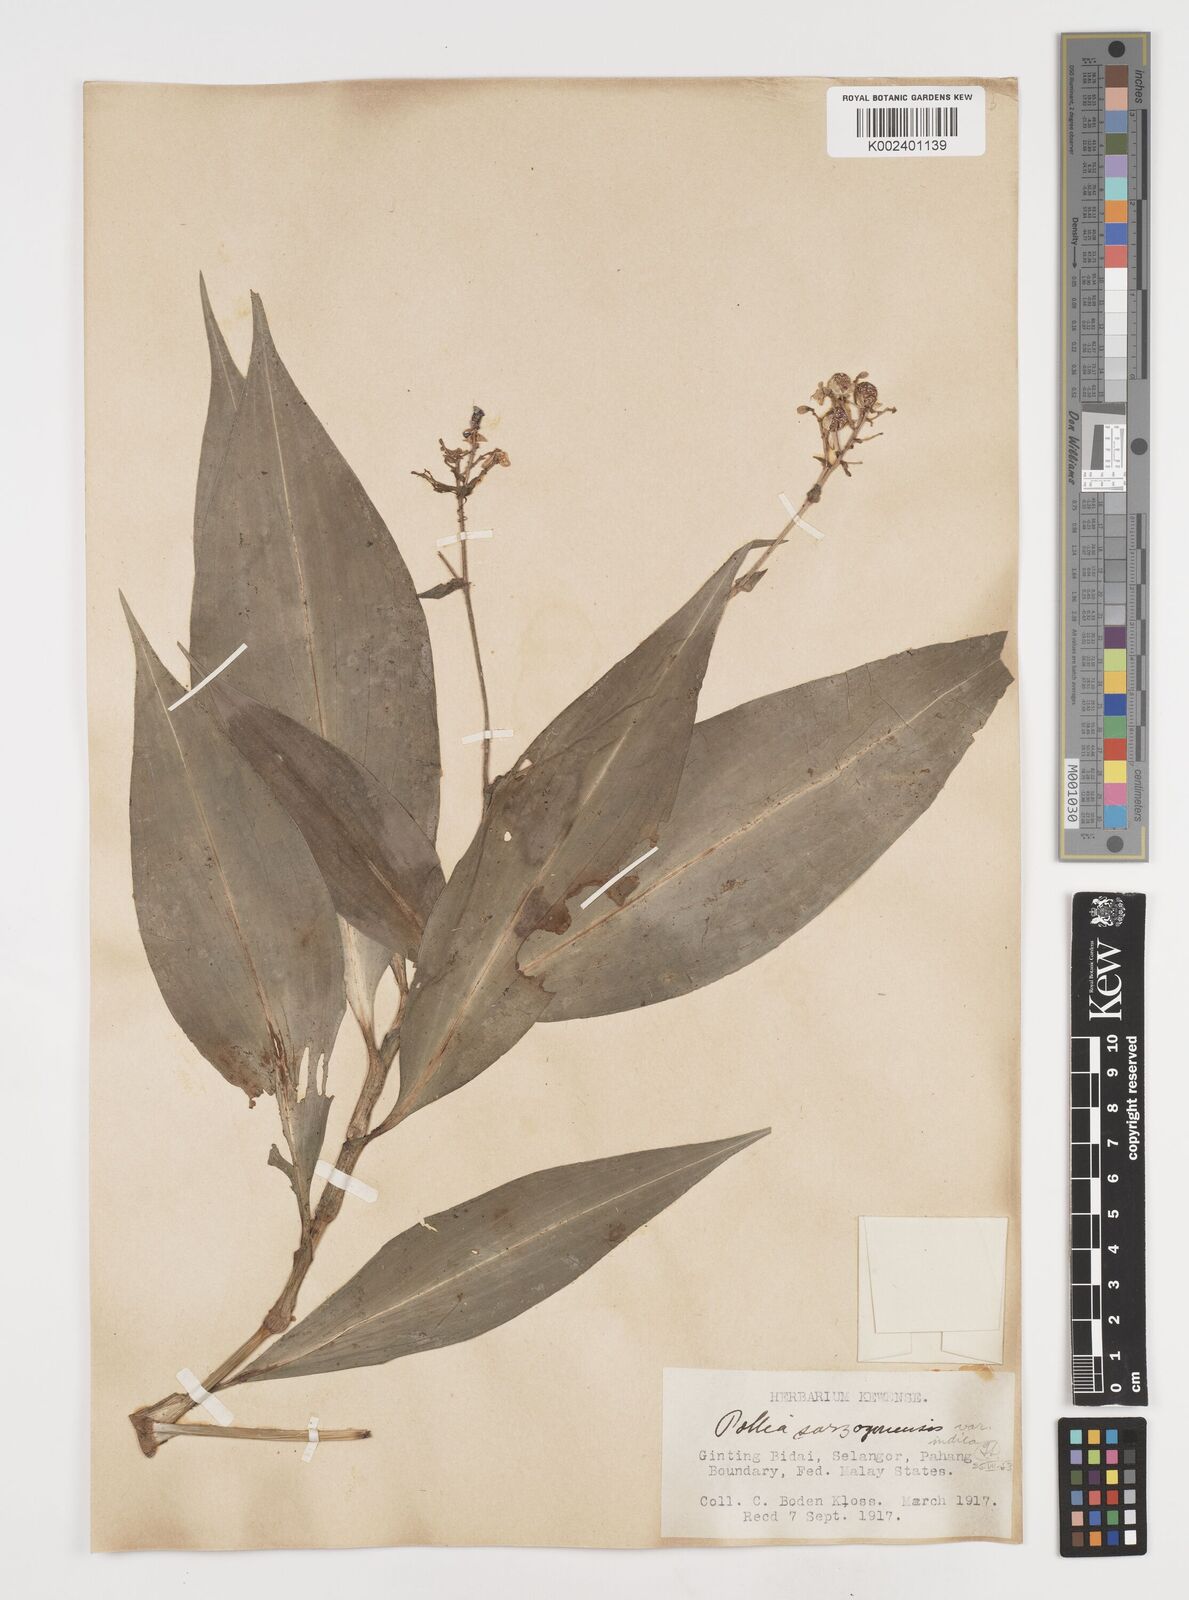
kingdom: Plantae
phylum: Tracheophyta
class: Liliopsida
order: Commelinales
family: Commelinaceae
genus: Pollia
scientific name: Pollia secundiflora
